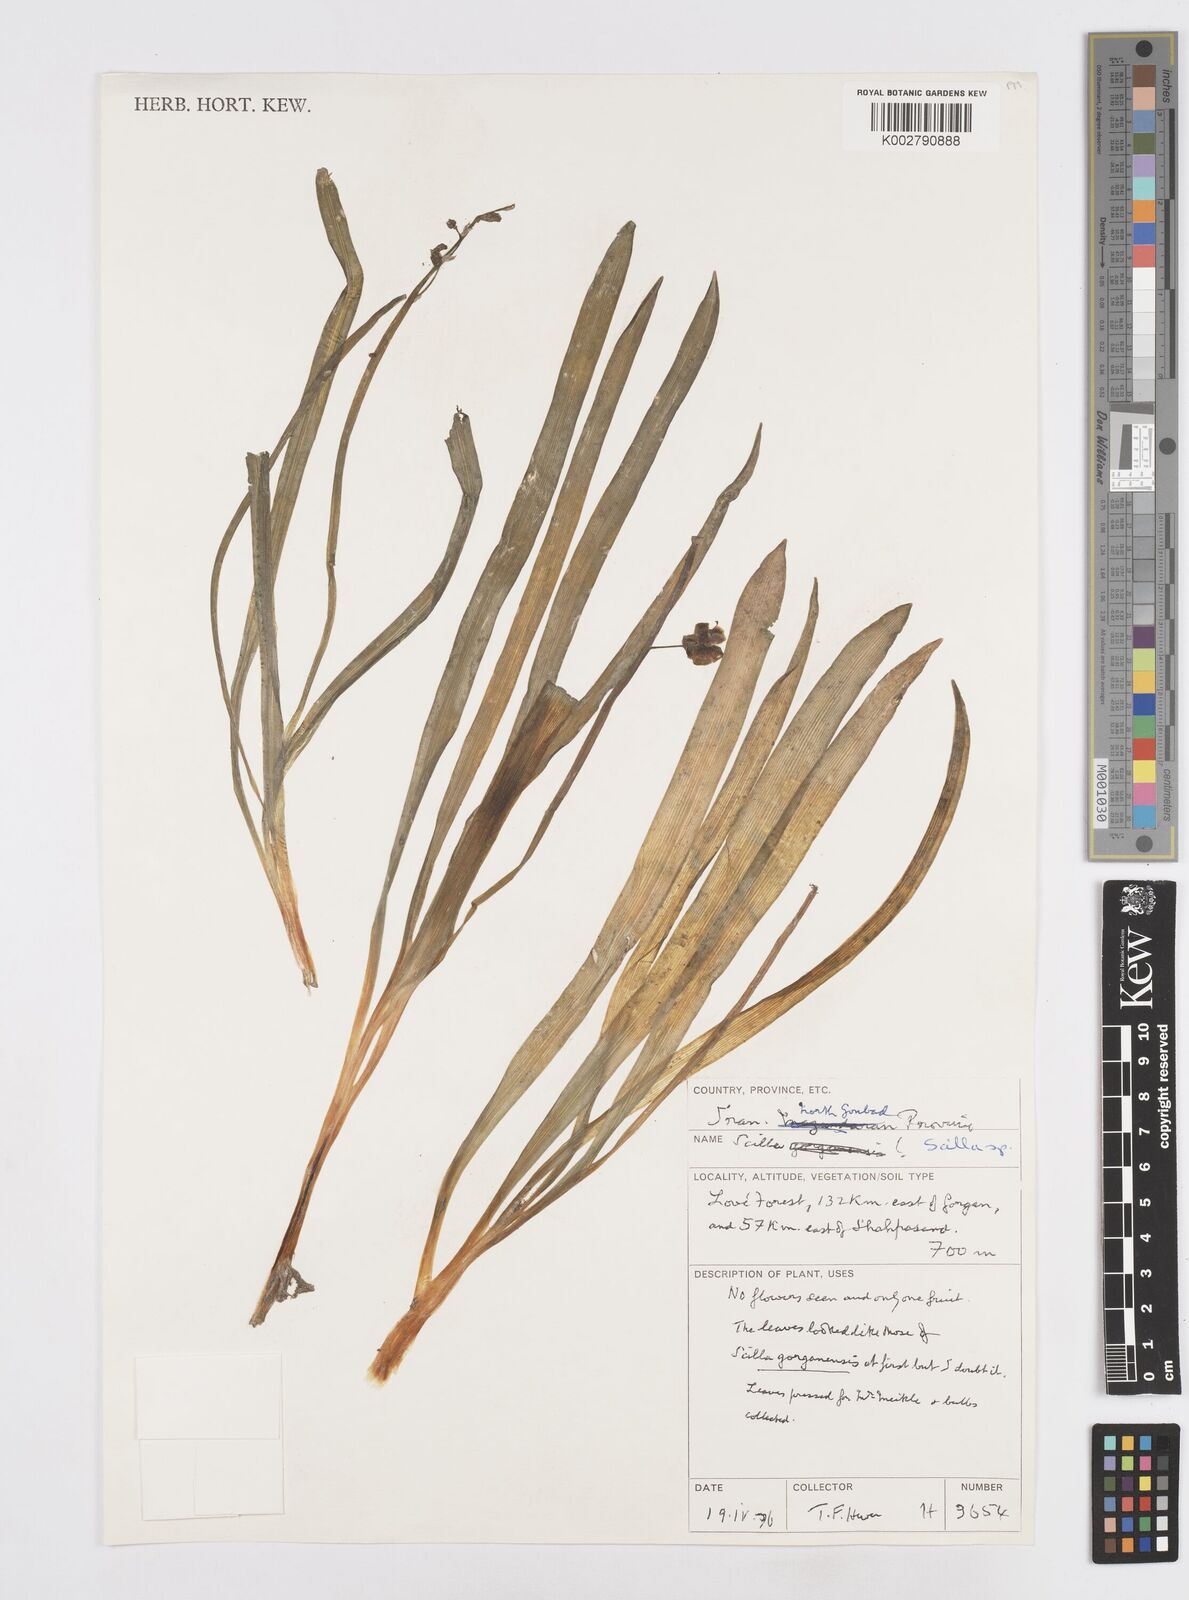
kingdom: Plantae
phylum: Tracheophyta
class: Liliopsida
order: Asparagales
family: Asparagaceae
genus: Fessia
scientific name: Fessia gorganica
